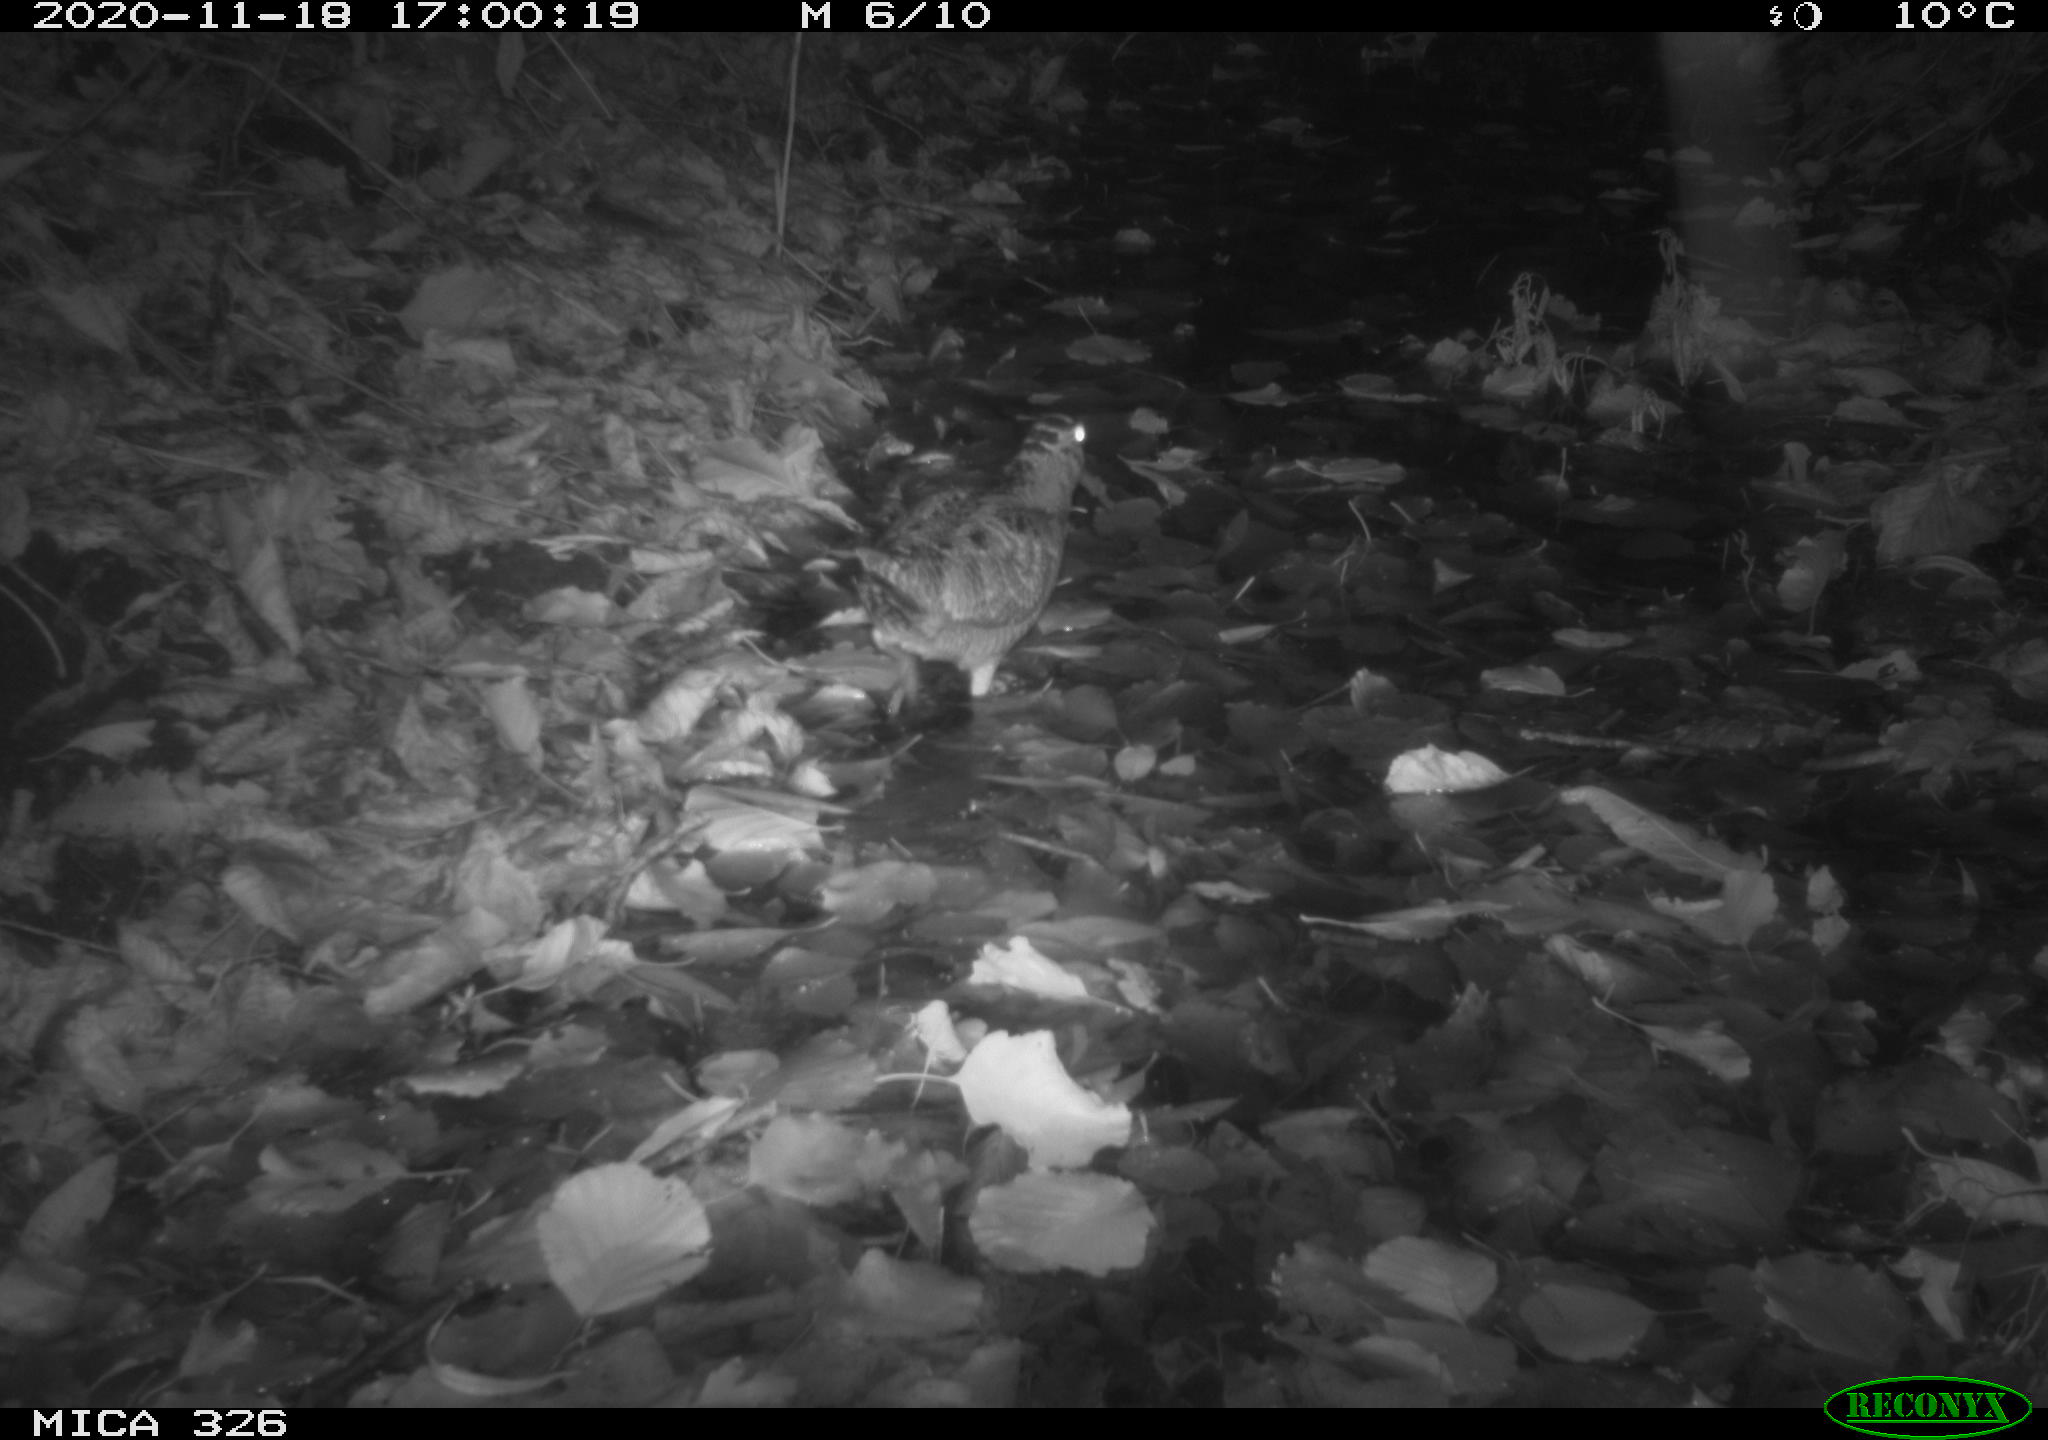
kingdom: Animalia
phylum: Chordata
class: Aves
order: Charadriiformes
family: Scolopacidae
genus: Scolopax
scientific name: Scolopax rusticola
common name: Eurasian woodcock
